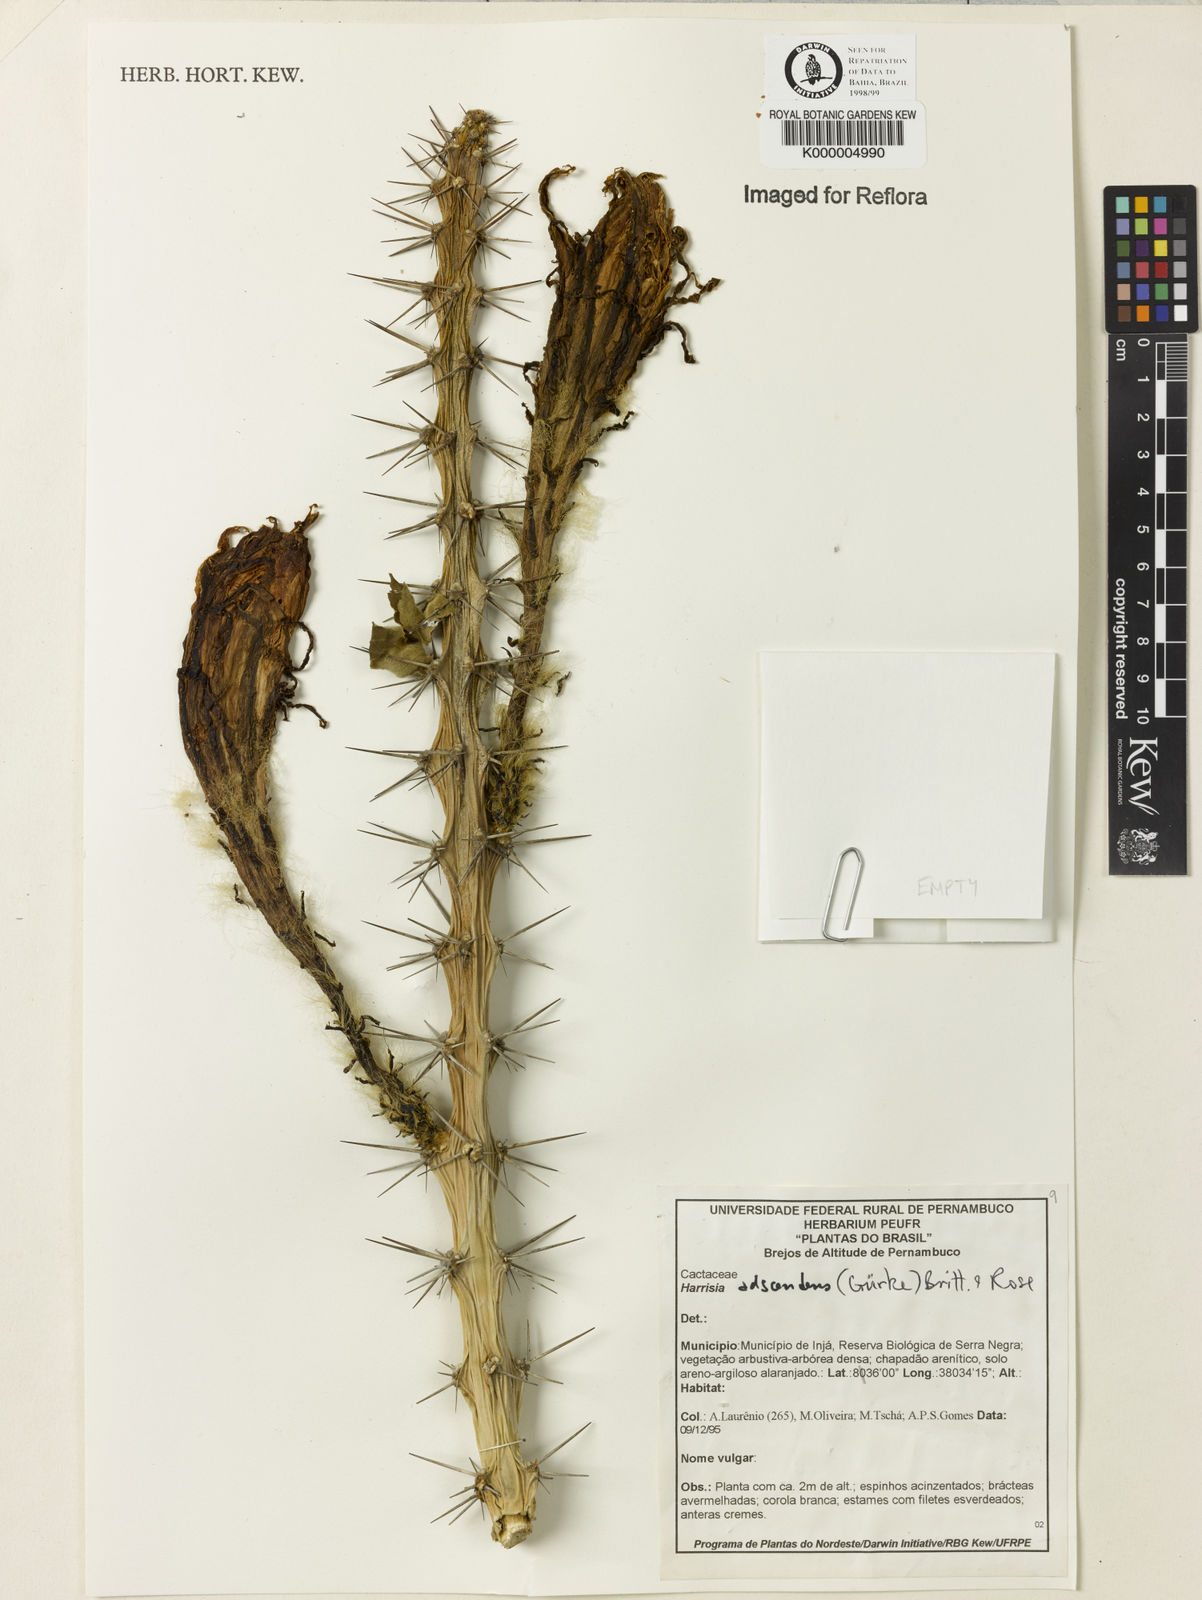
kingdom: Plantae
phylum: Tracheophyta
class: Magnoliopsida
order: Caryophyllales
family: Cactaceae
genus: Harrisia
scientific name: Harrisia adscendens
